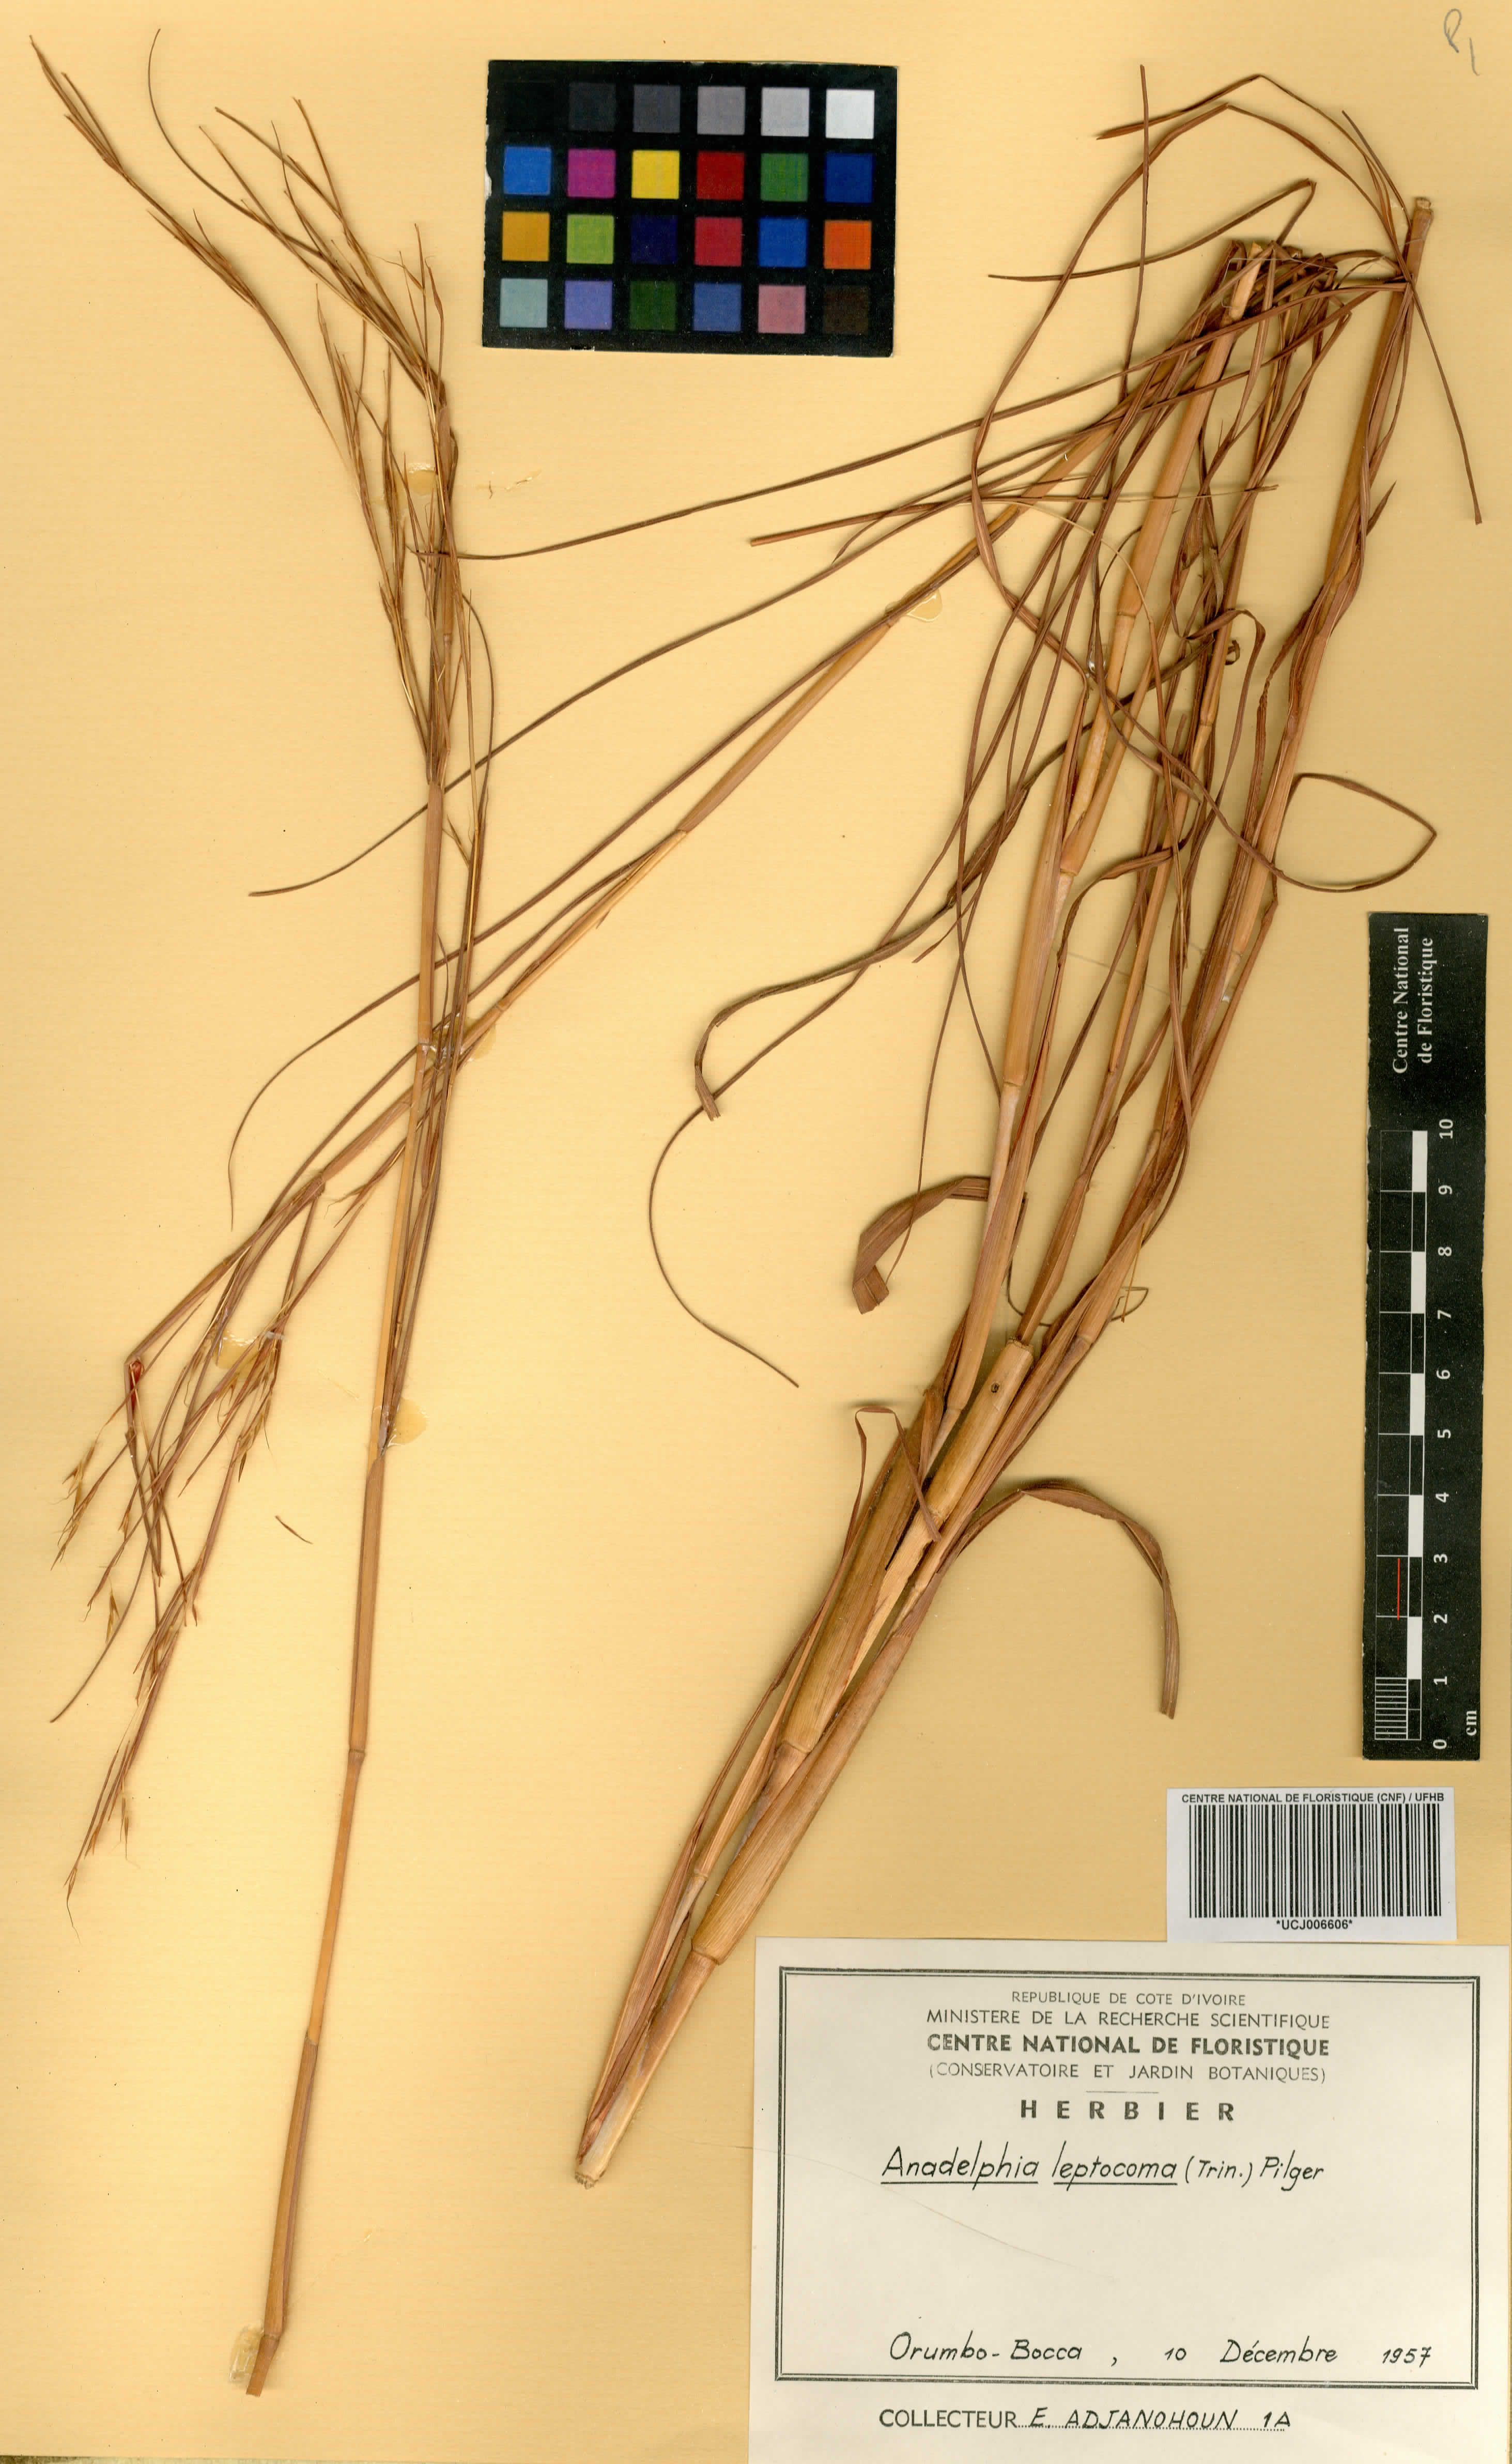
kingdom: Plantae
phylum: Tracheophyta
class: Liliopsida
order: Poales
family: Poaceae
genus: Anadelphia
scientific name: Anadelphia leptocoma
